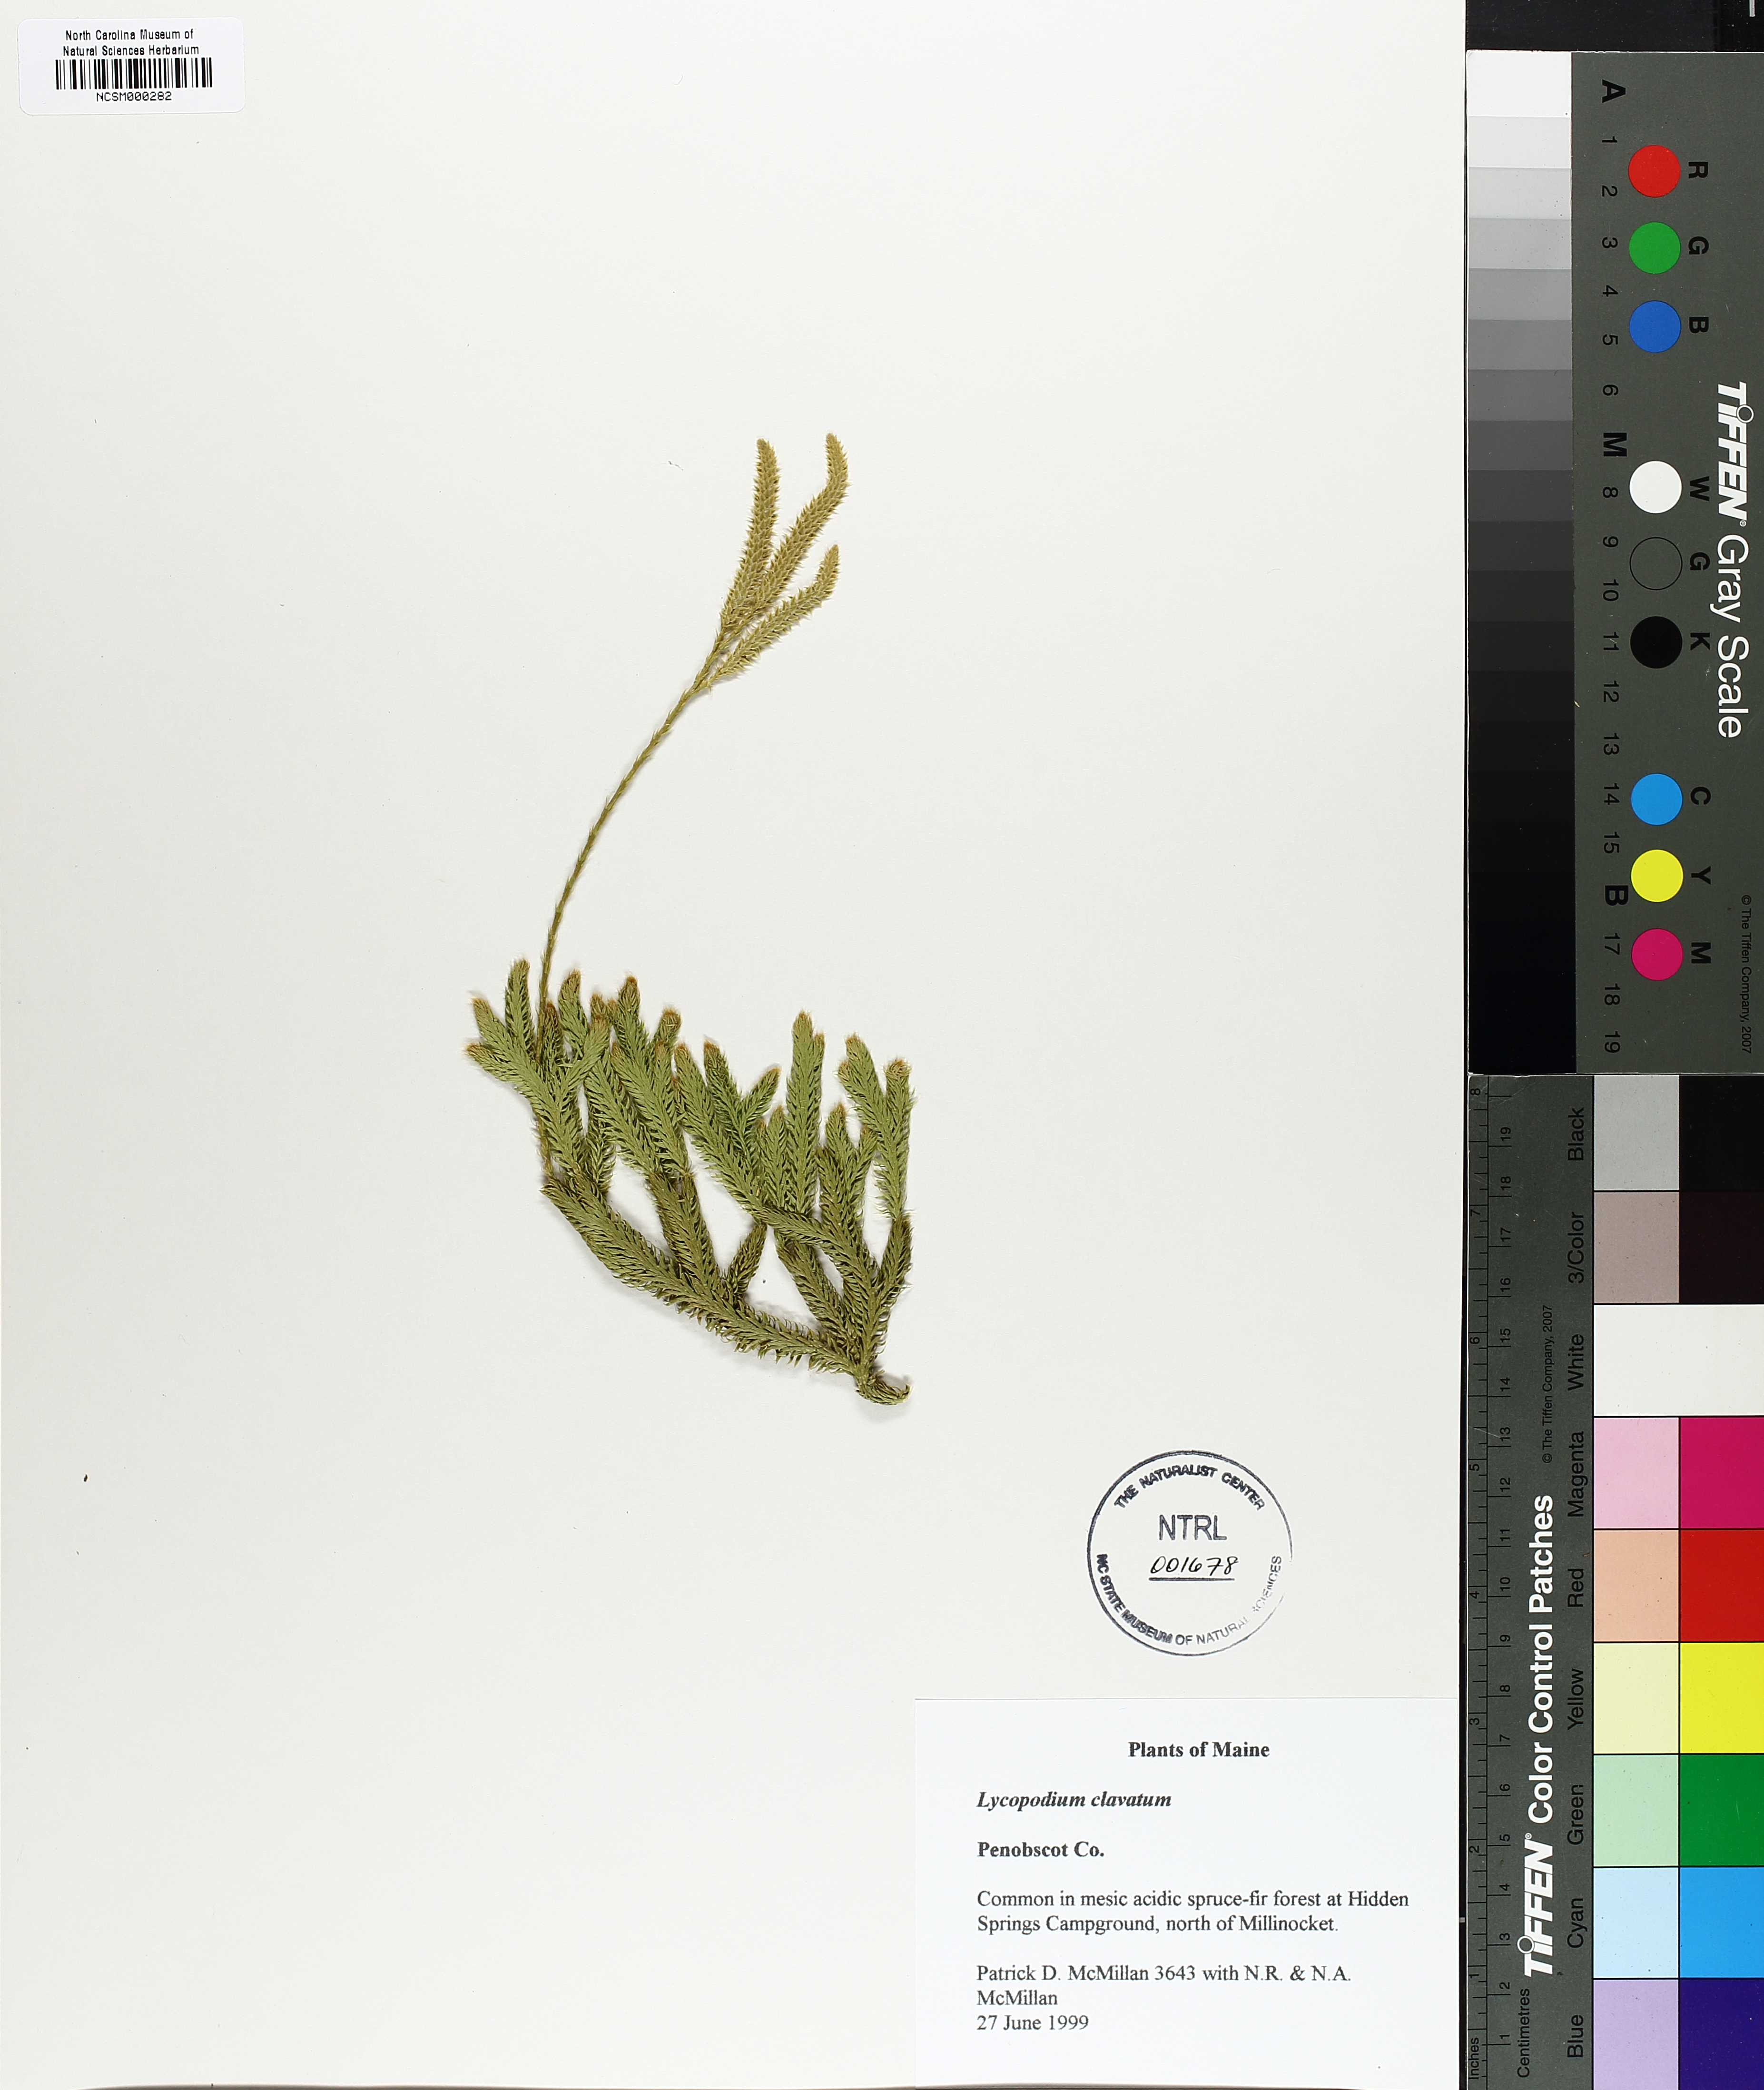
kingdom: Plantae
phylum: Tracheophyta
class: Lycopodiopsida
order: Lycopodiales
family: Lycopodiaceae
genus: Lycopodium
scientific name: Lycopodium clavatum
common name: Stag's-horn clubmoss
